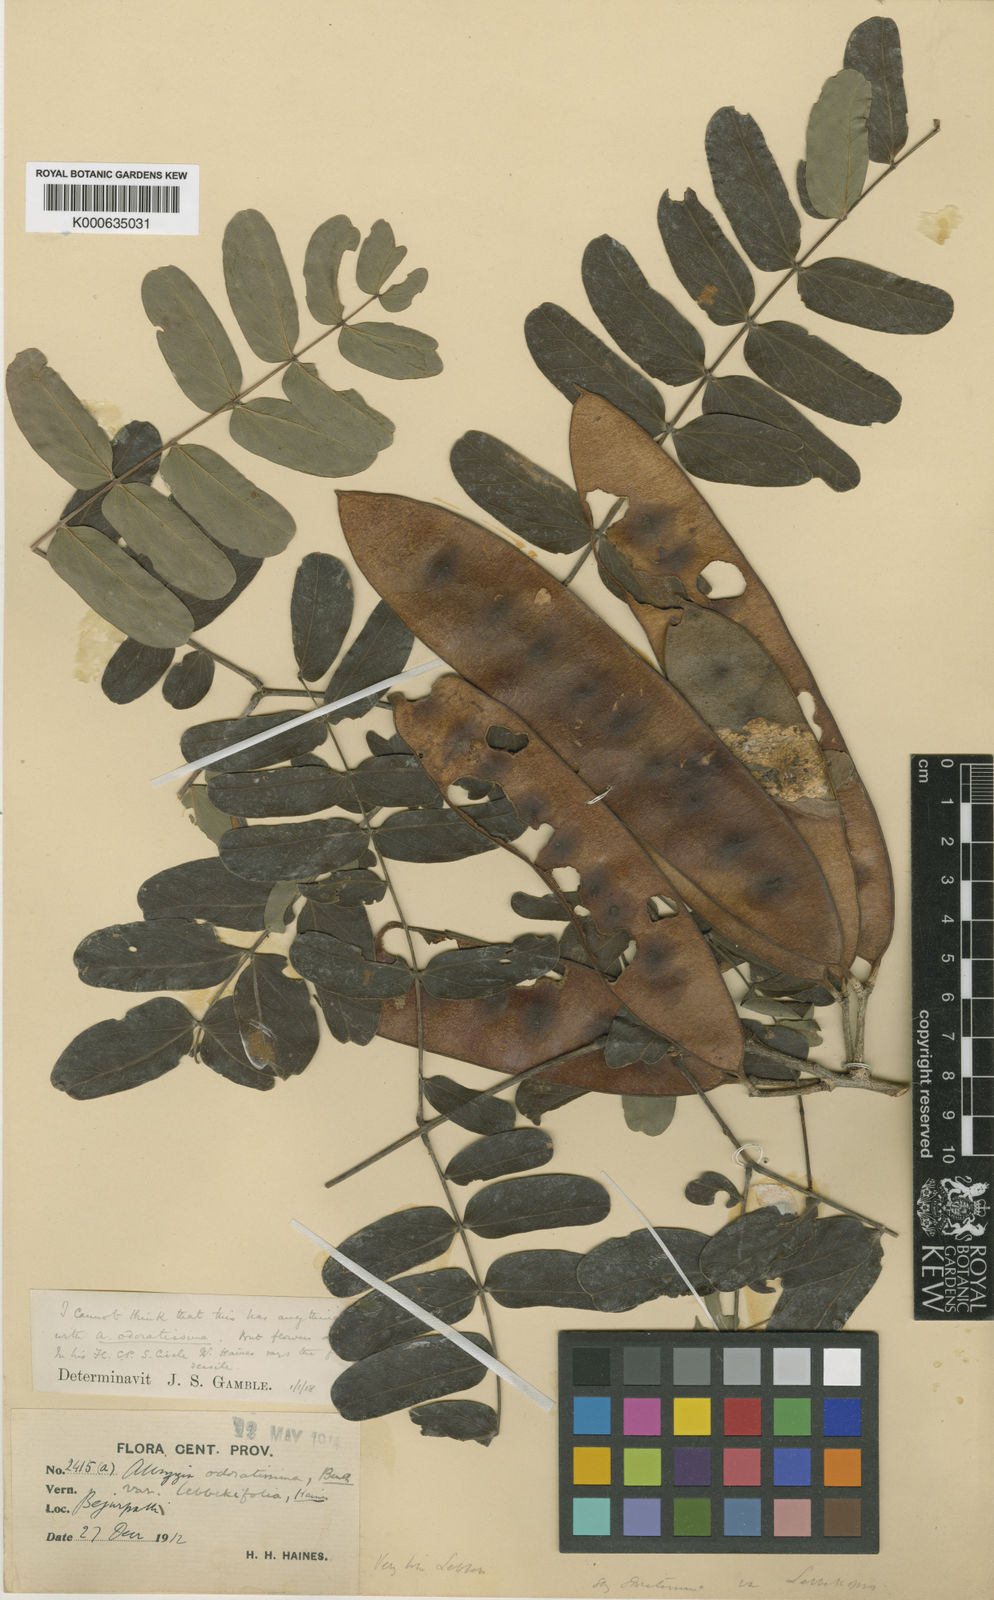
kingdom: Plantae
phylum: Tracheophyta
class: Magnoliopsida
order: Fabales
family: Fabaceae
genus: Albizia
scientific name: Albizia odoratissima
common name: Ceylon rosewood
